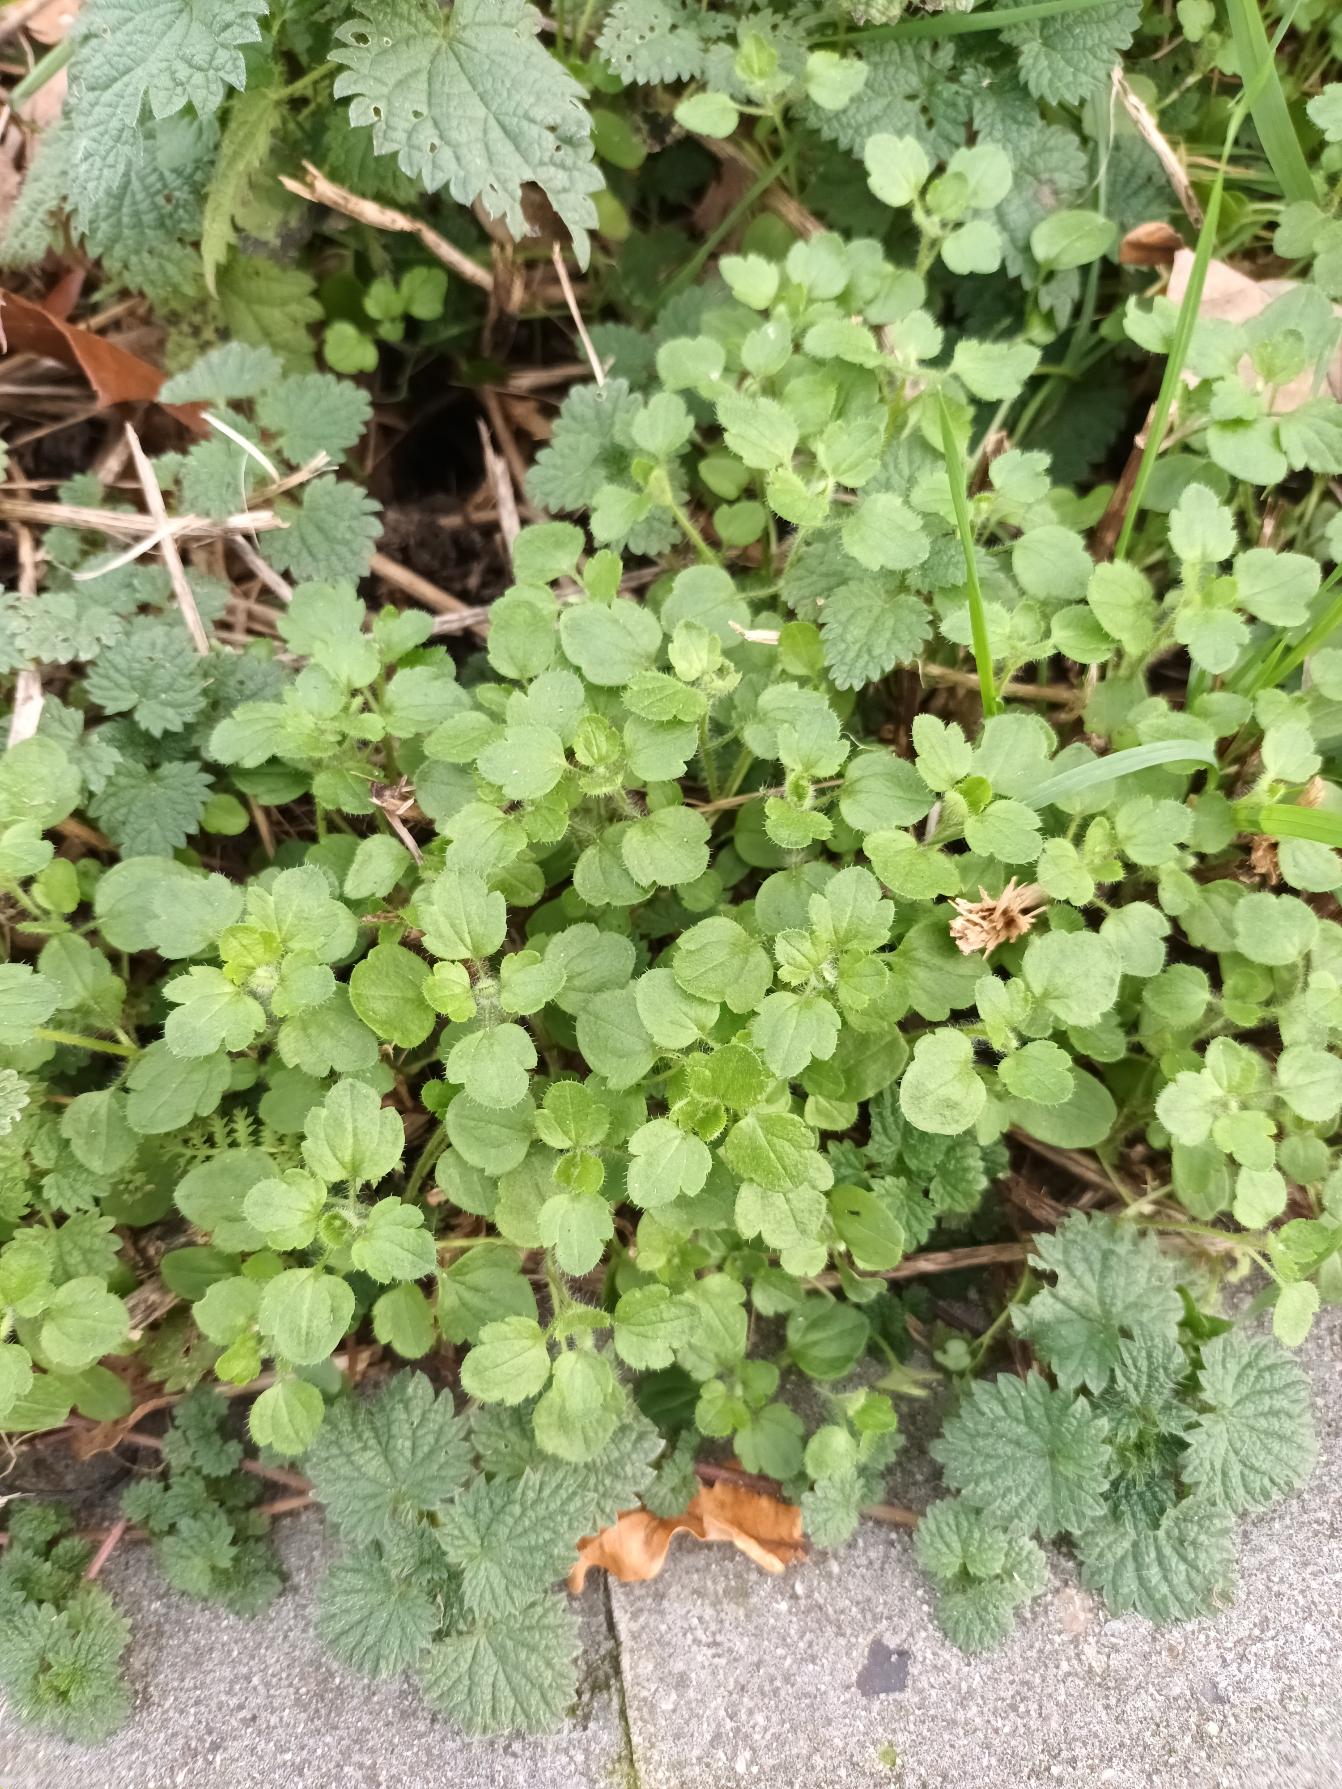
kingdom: Plantae
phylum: Tracheophyta
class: Magnoliopsida
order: Lamiales
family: Plantaginaceae
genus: Veronica
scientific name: Veronica sublobata
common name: Krat-ærenpris
